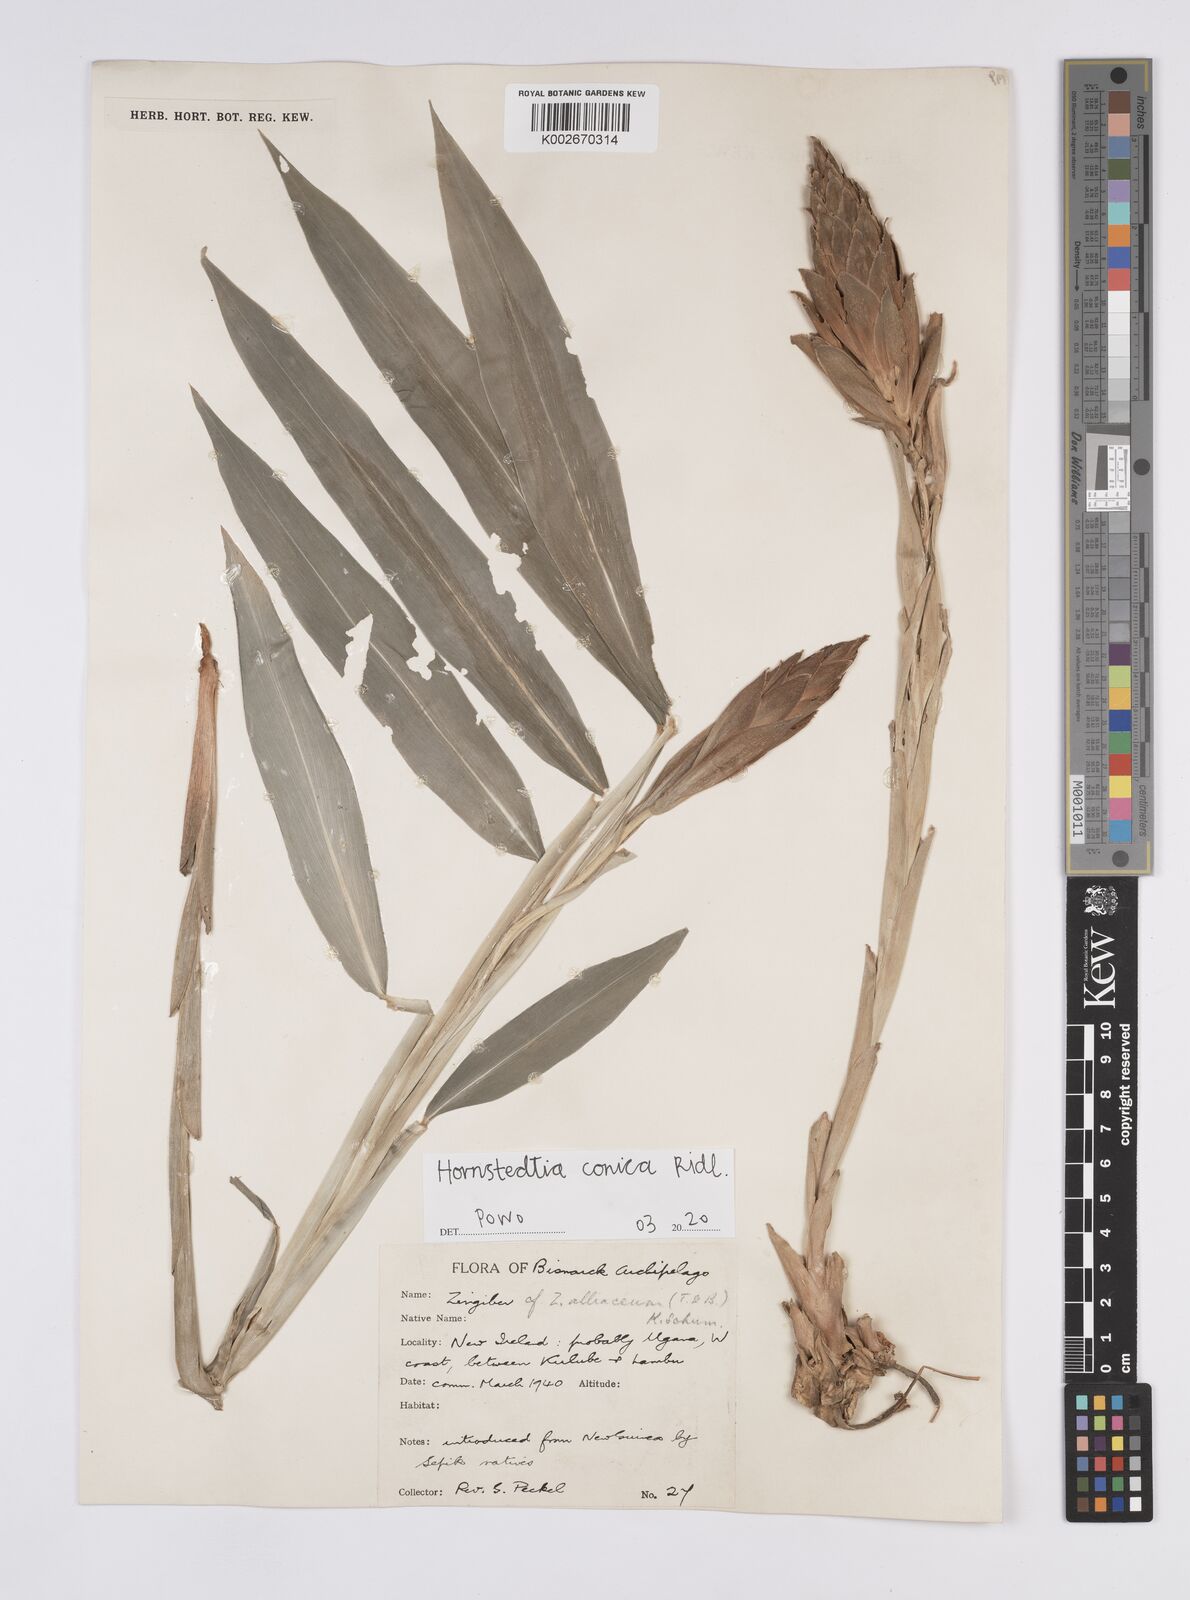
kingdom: Plantae
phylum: Tracheophyta
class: Liliopsida
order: Zingiberales
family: Zingiberaceae
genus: Hornstedtia
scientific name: Hornstedtia conica
